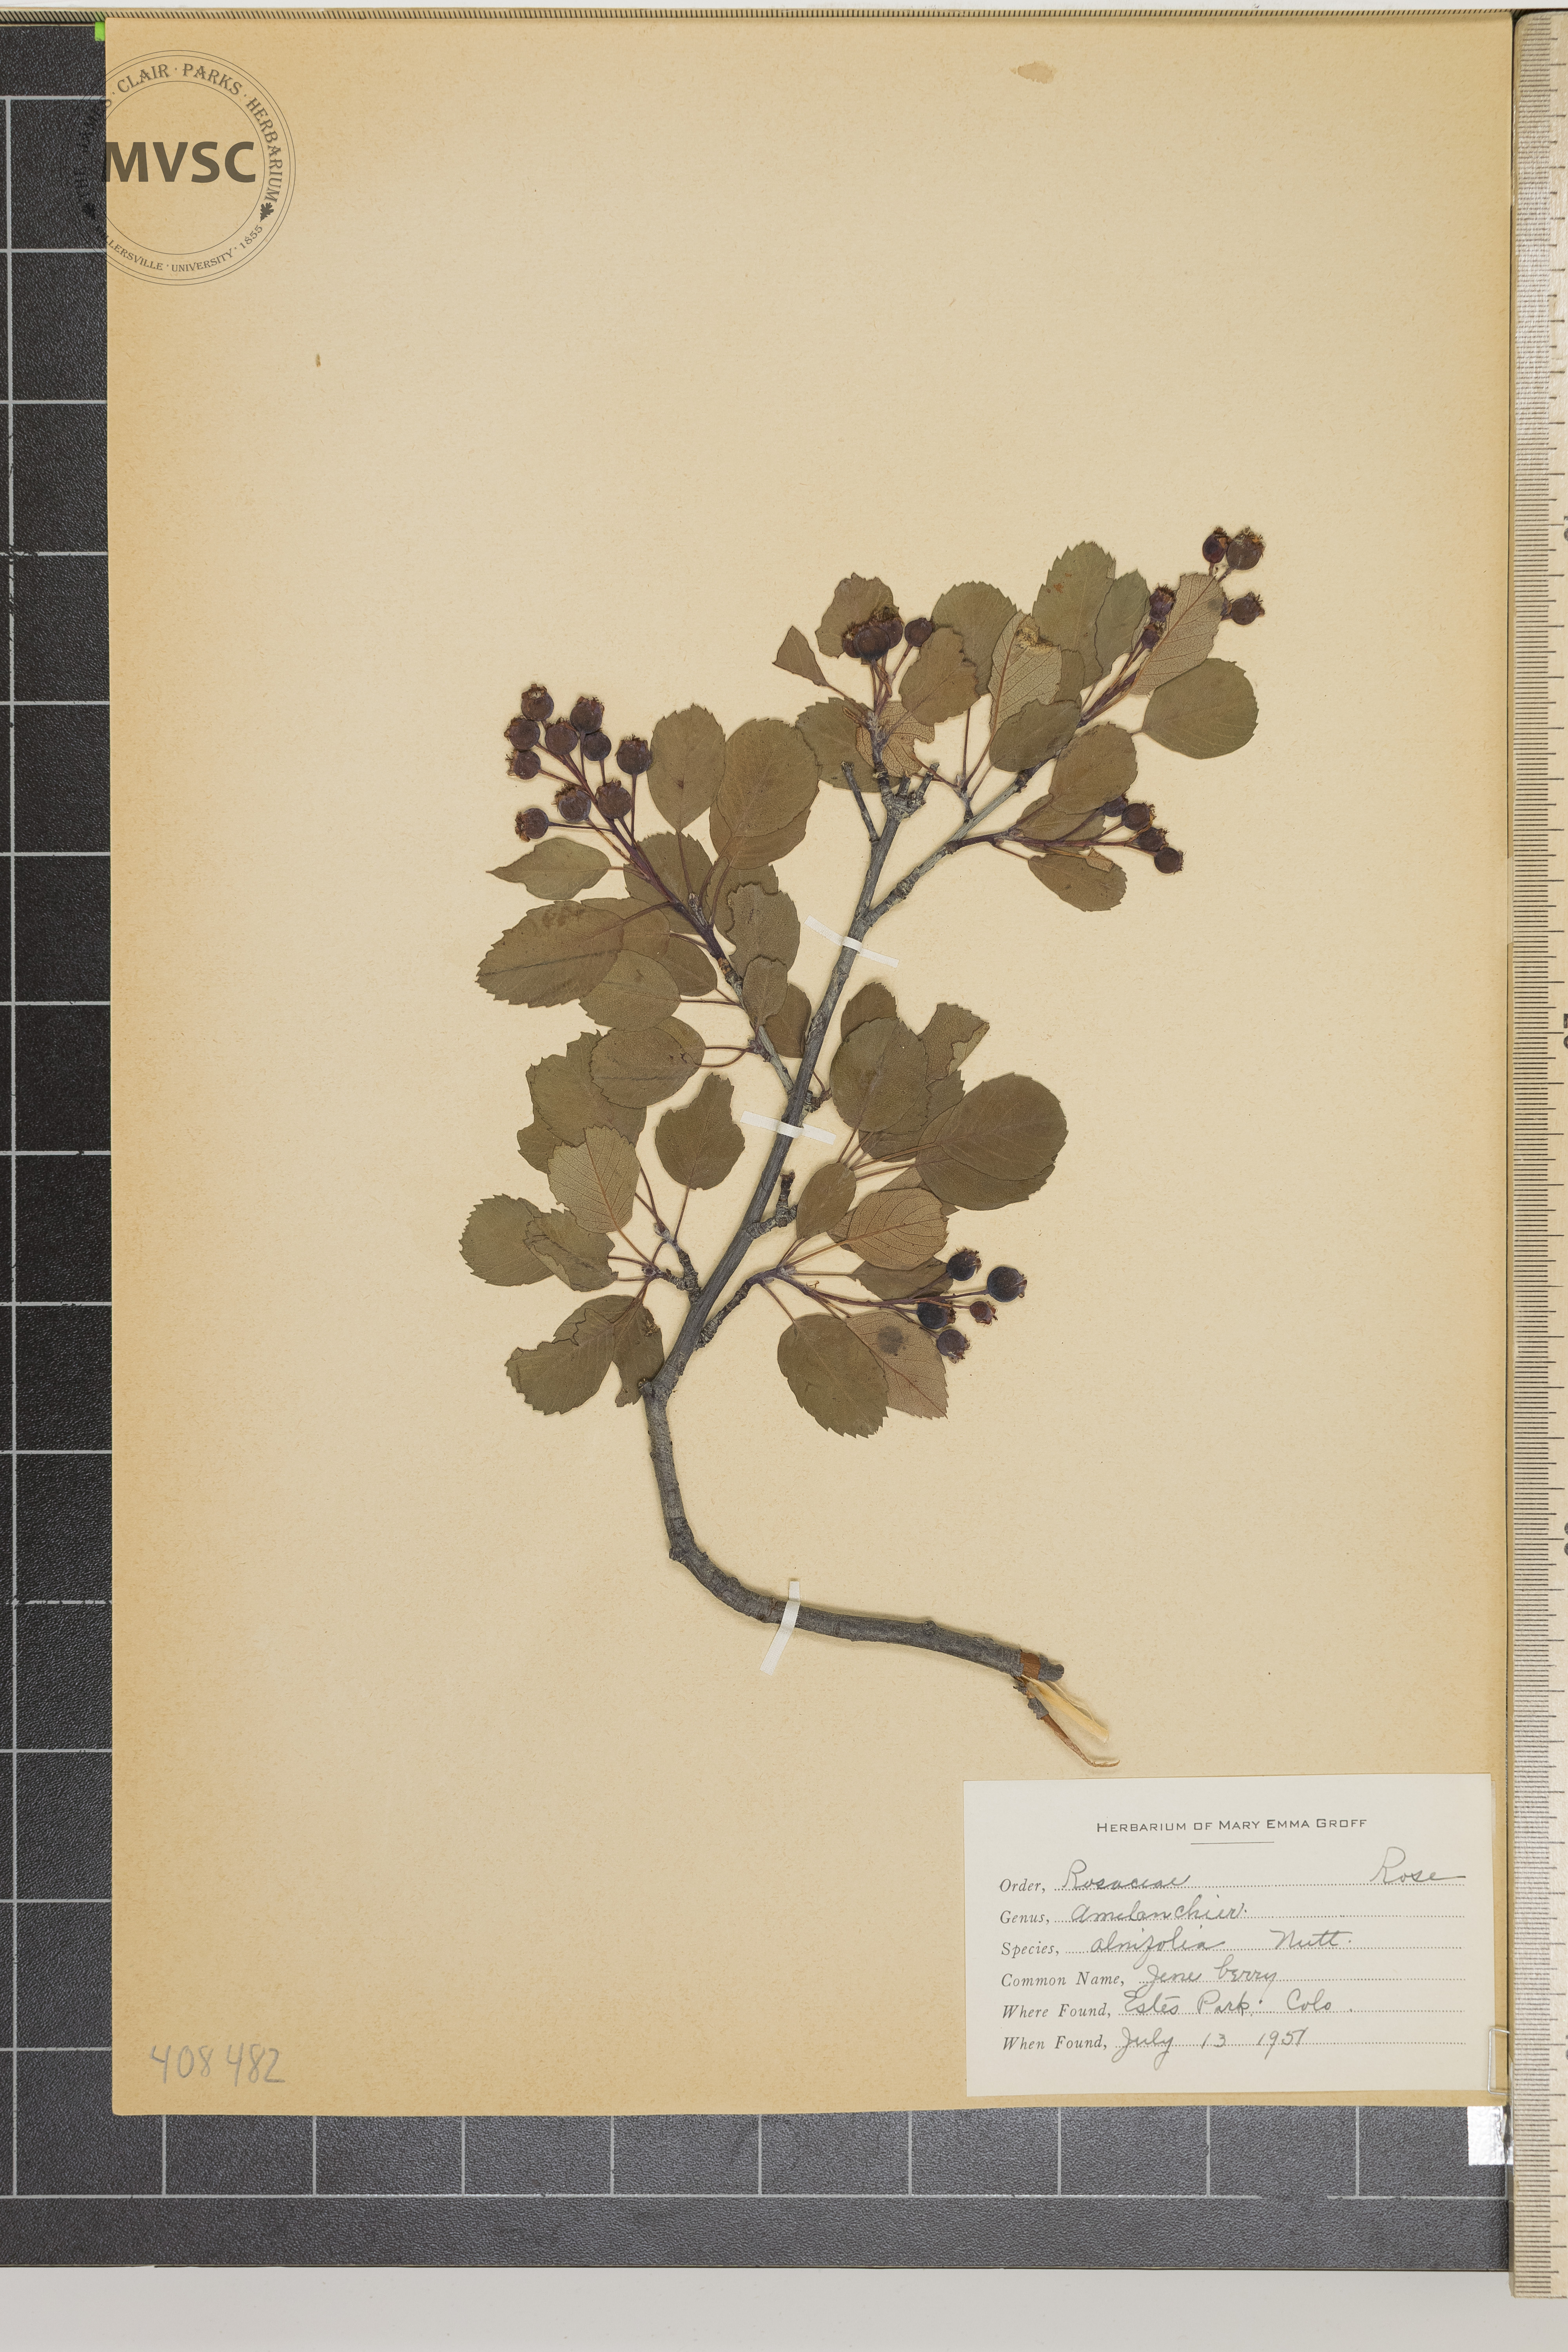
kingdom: Plantae
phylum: Tracheophyta
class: Magnoliopsida
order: Rosales
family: Rosaceae
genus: Amelanchier
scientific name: Amelanchier alnifolia
